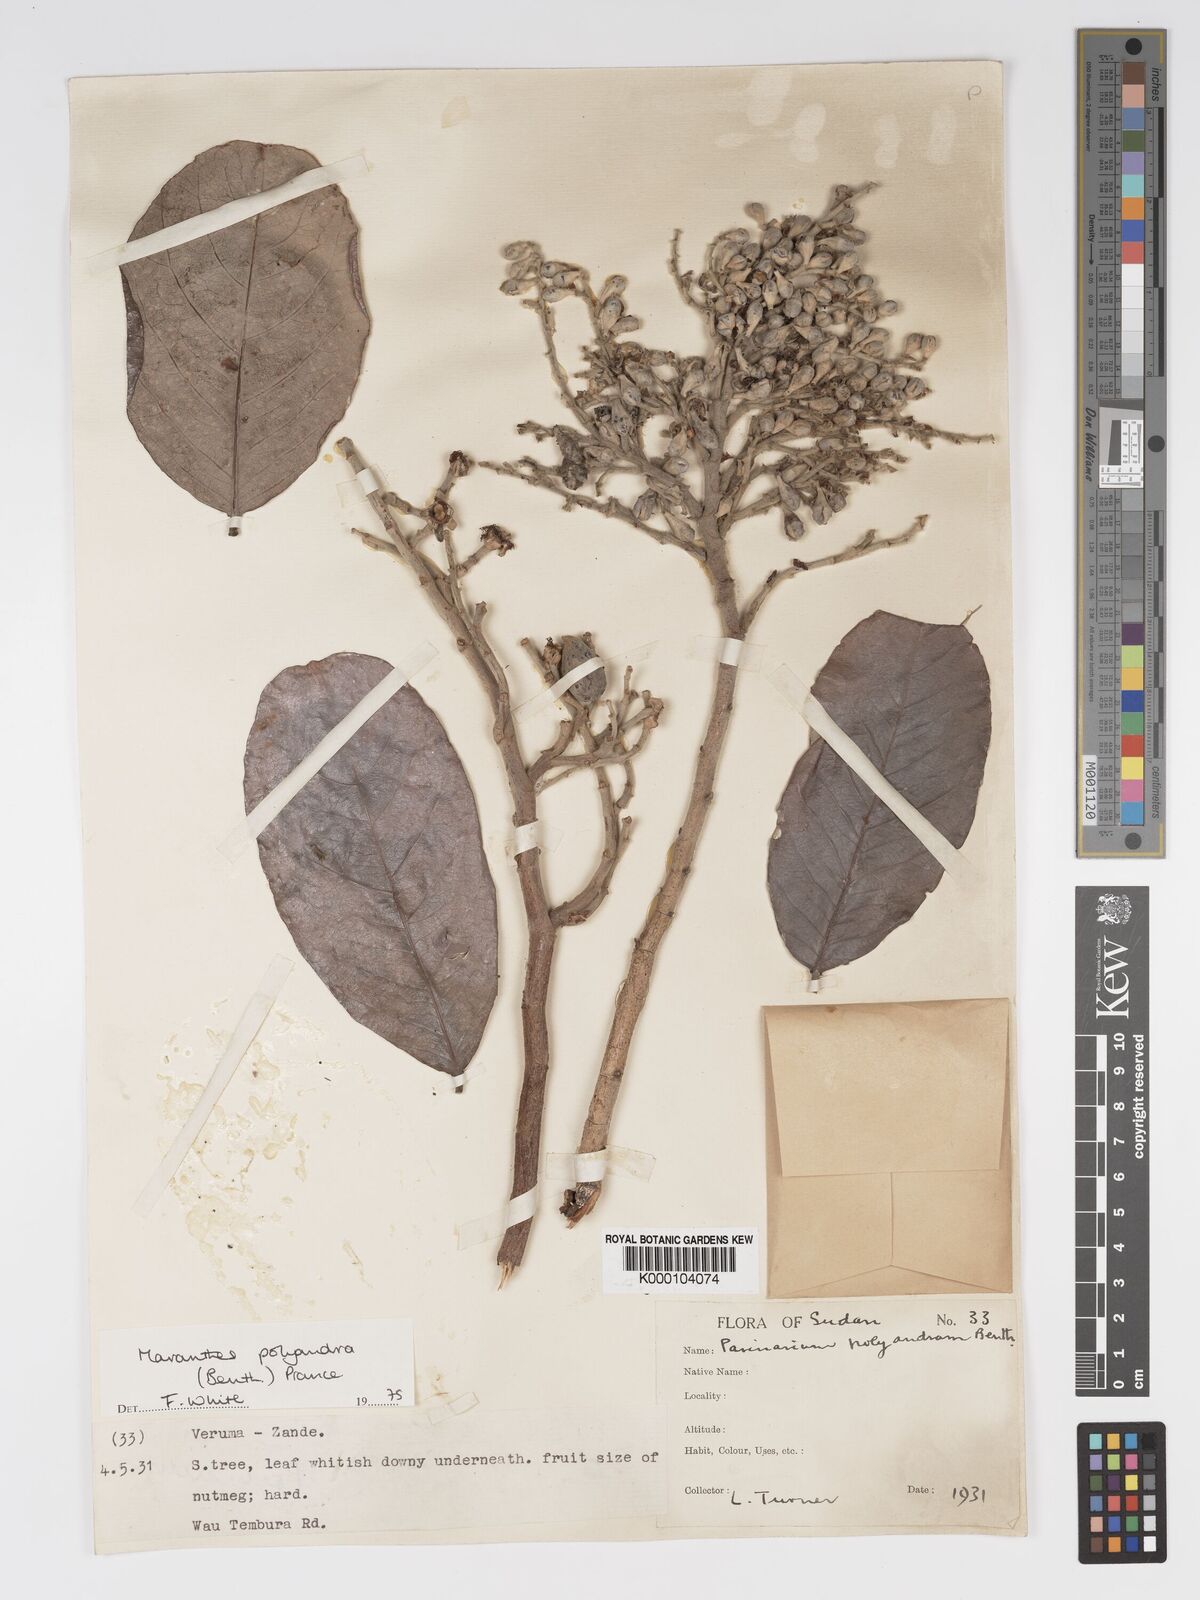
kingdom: Plantae
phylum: Tracheophyta
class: Magnoliopsida
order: Malpighiales
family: Chrysobalanaceae
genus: Maranthes
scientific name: Maranthes polyandra
